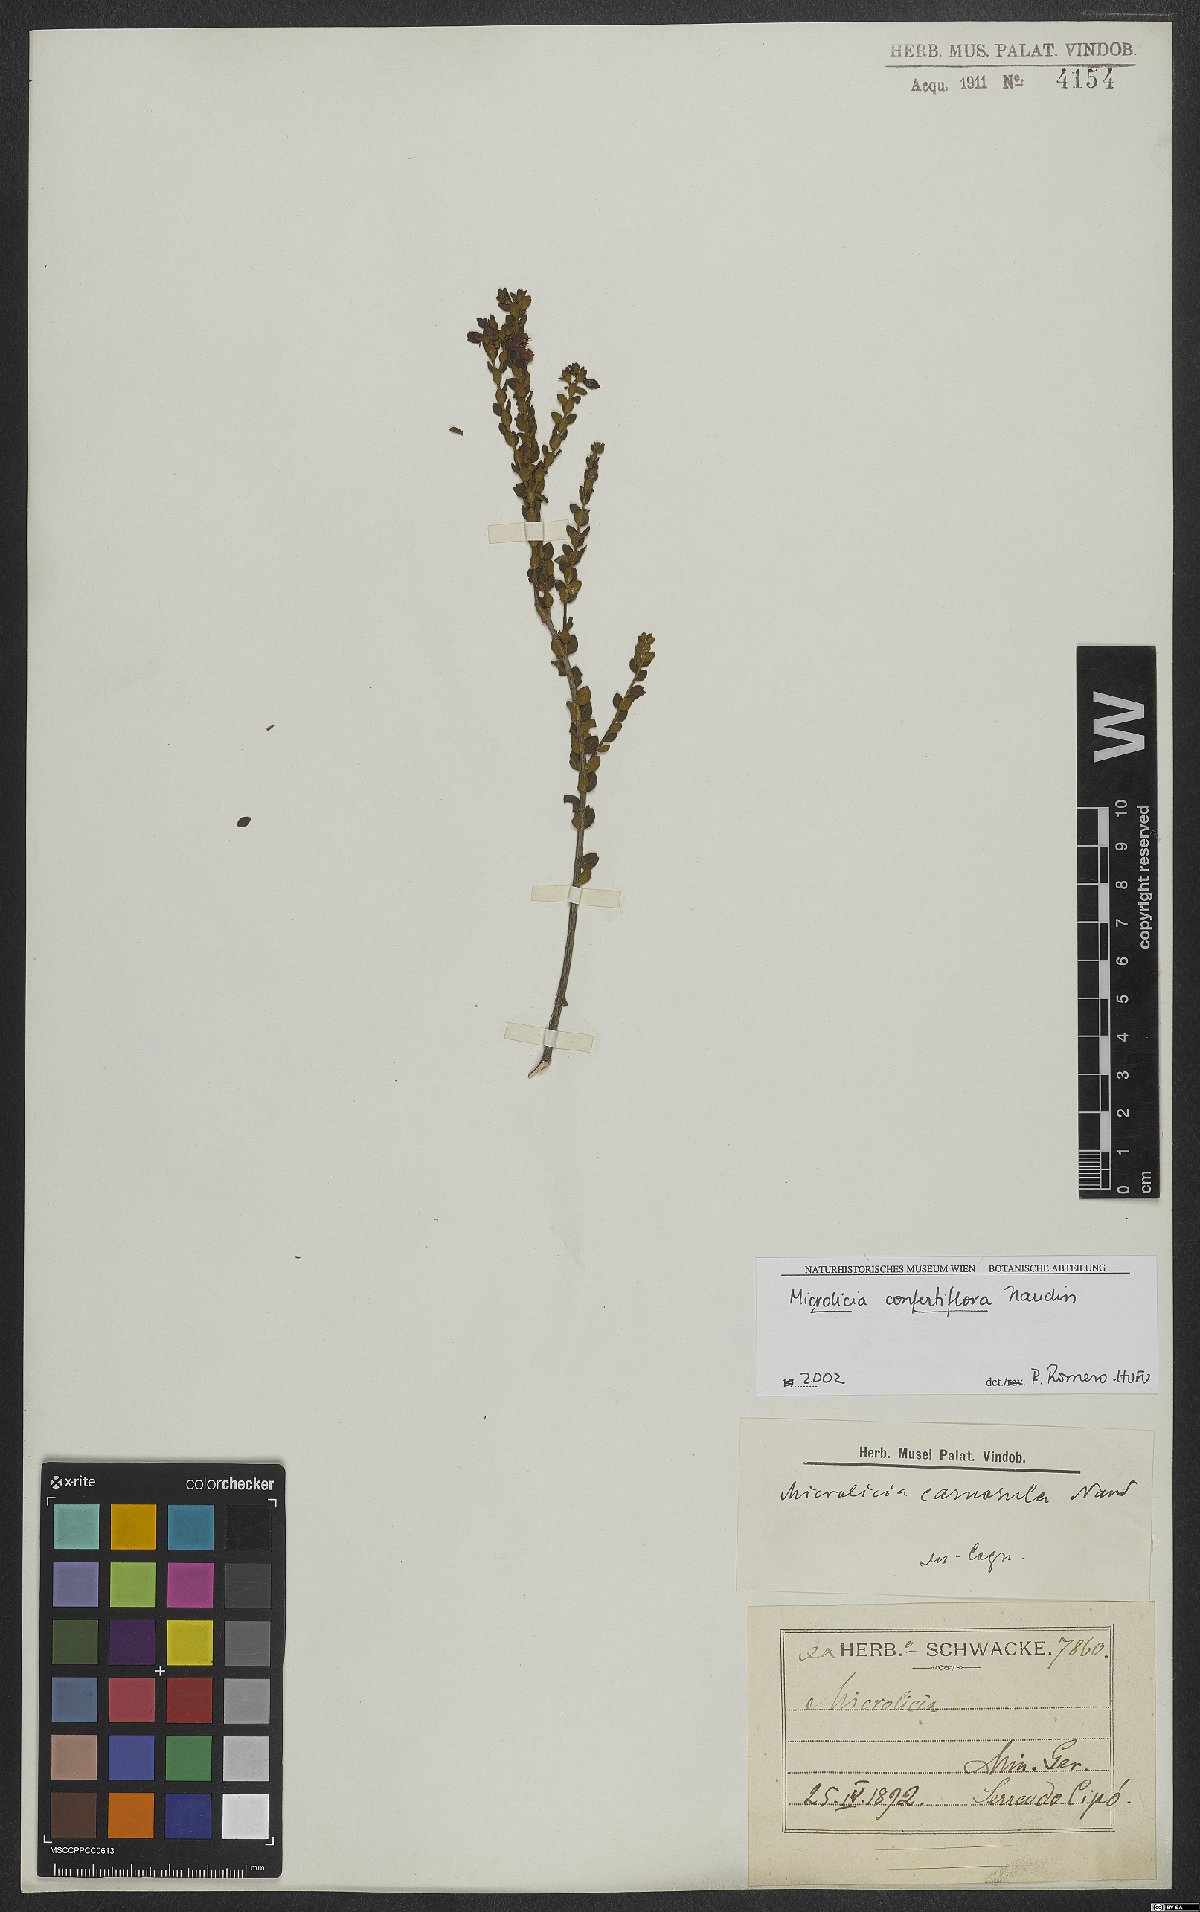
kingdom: Plantae
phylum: Tracheophyta
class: Magnoliopsida
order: Myrtales
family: Melastomataceae
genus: Microlicia
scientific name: Microlicia confertiflora
